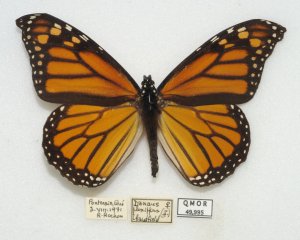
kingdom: Animalia
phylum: Arthropoda
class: Insecta
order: Lepidoptera
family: Nymphalidae
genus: Danaus
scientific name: Danaus plexippus
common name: Monarch
